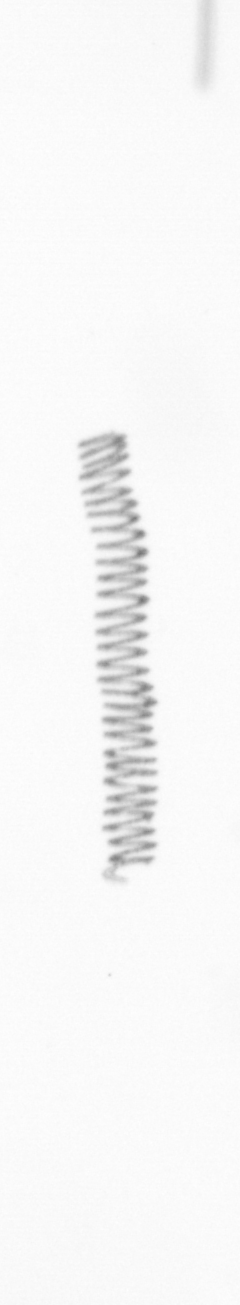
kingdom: Chromista
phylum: Ochrophyta
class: Bacillariophyceae
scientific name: Bacillariophyceae
